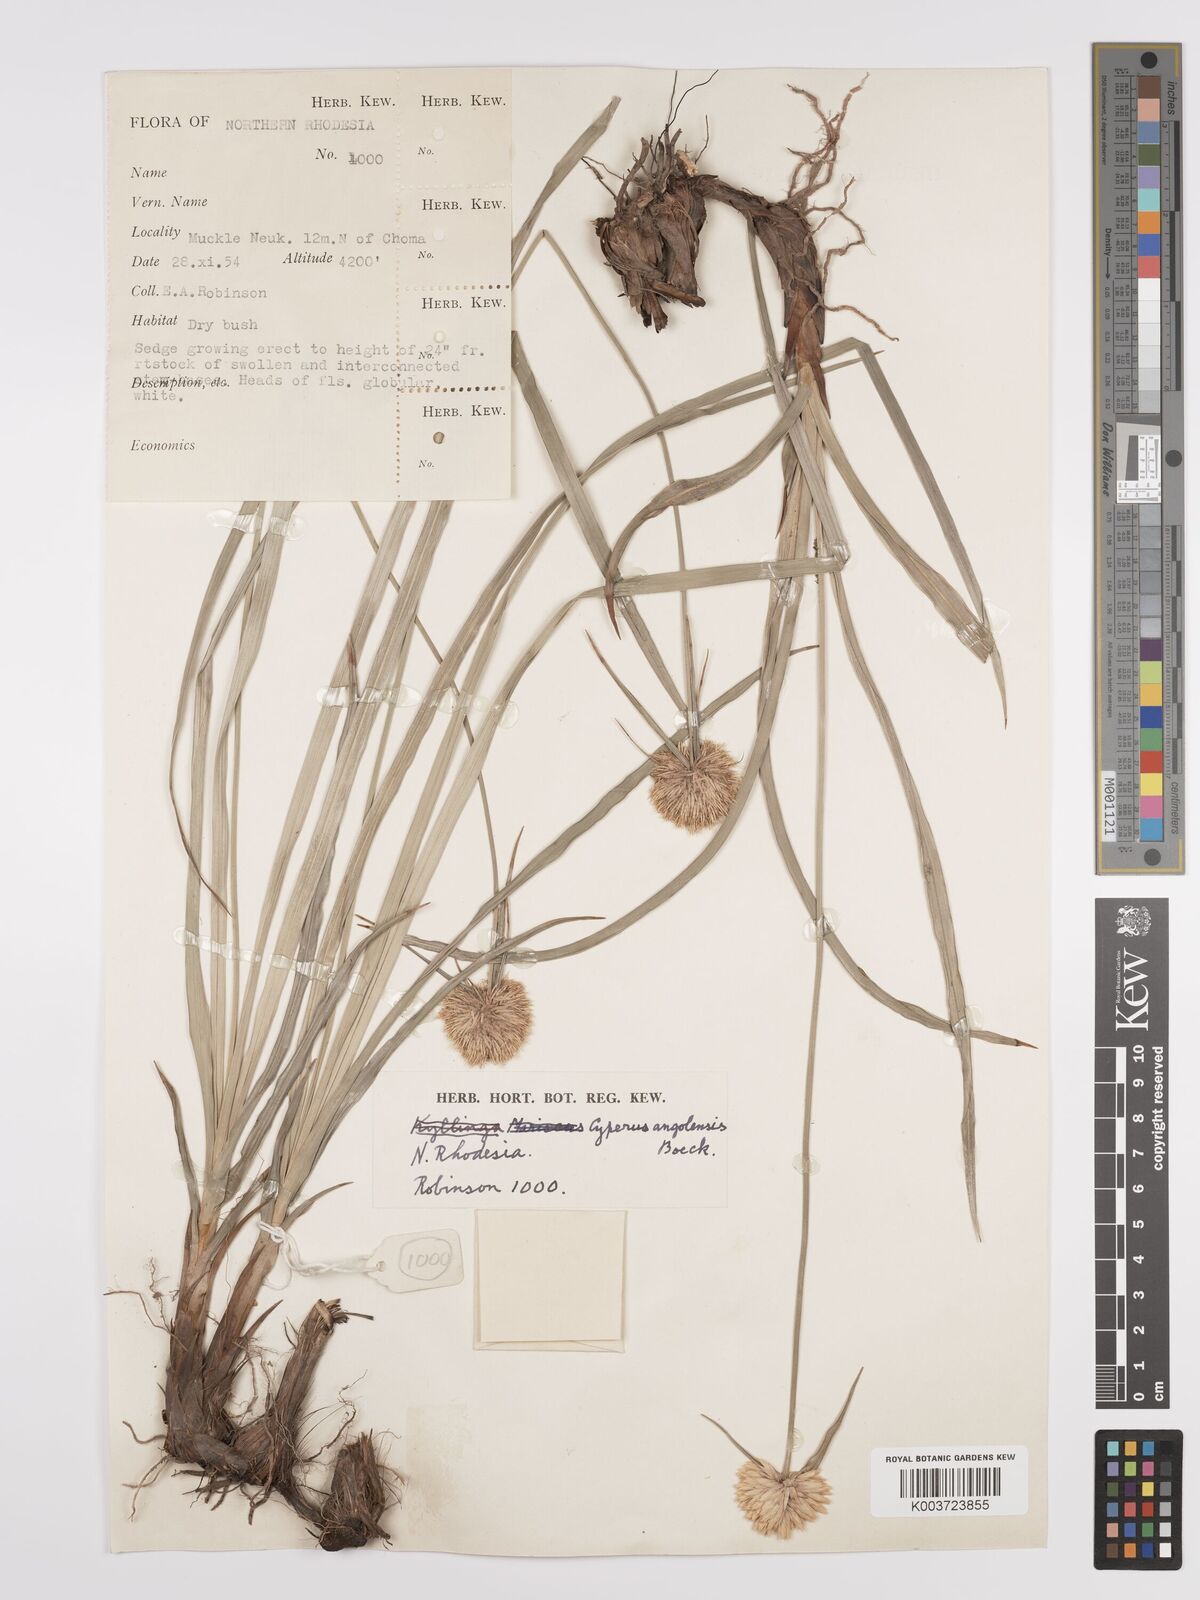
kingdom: Plantae
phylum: Tracheophyta
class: Liliopsida
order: Poales
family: Cyperaceae
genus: Cyperus
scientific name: Cyperus angolensis
